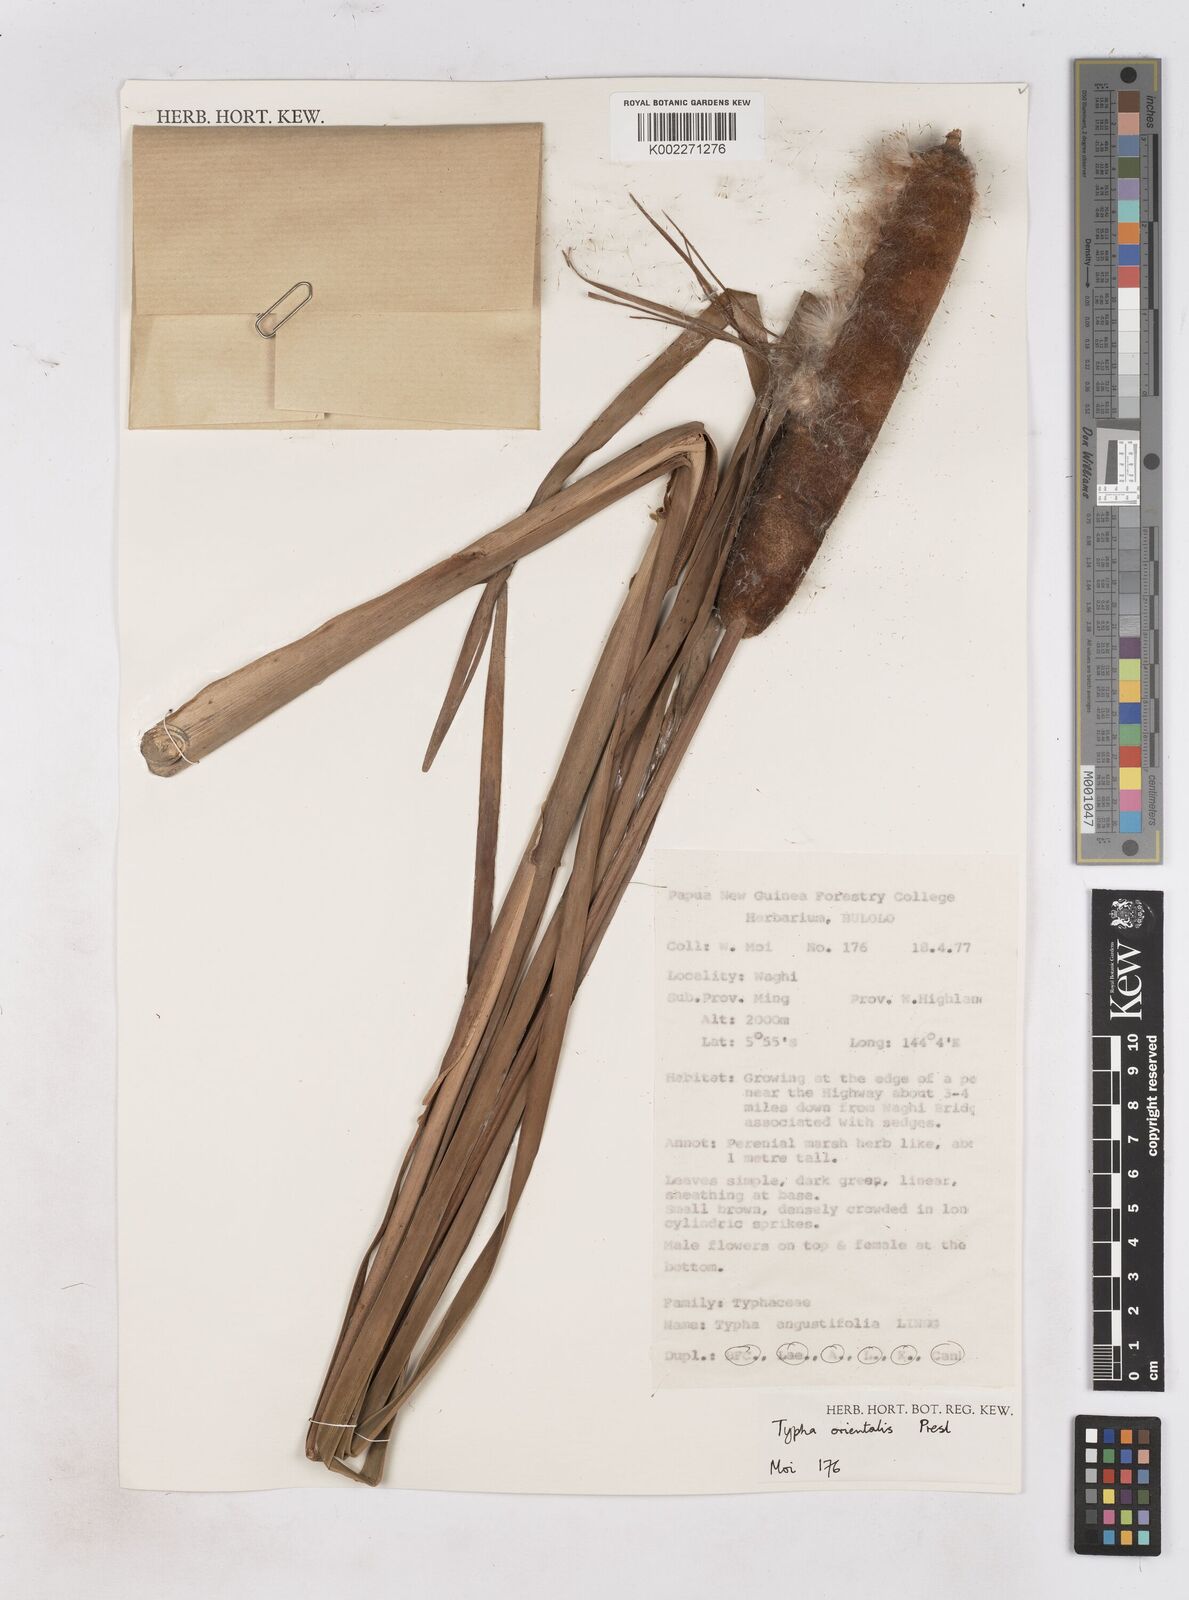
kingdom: Plantae
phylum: Tracheophyta
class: Liliopsida
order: Poales
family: Typhaceae
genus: Typha
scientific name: Typha orientalis
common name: Bullrush
